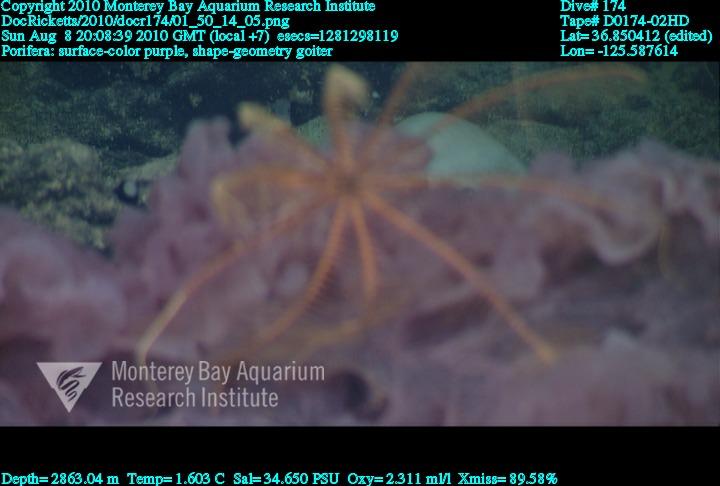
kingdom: Animalia
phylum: Porifera
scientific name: Porifera
